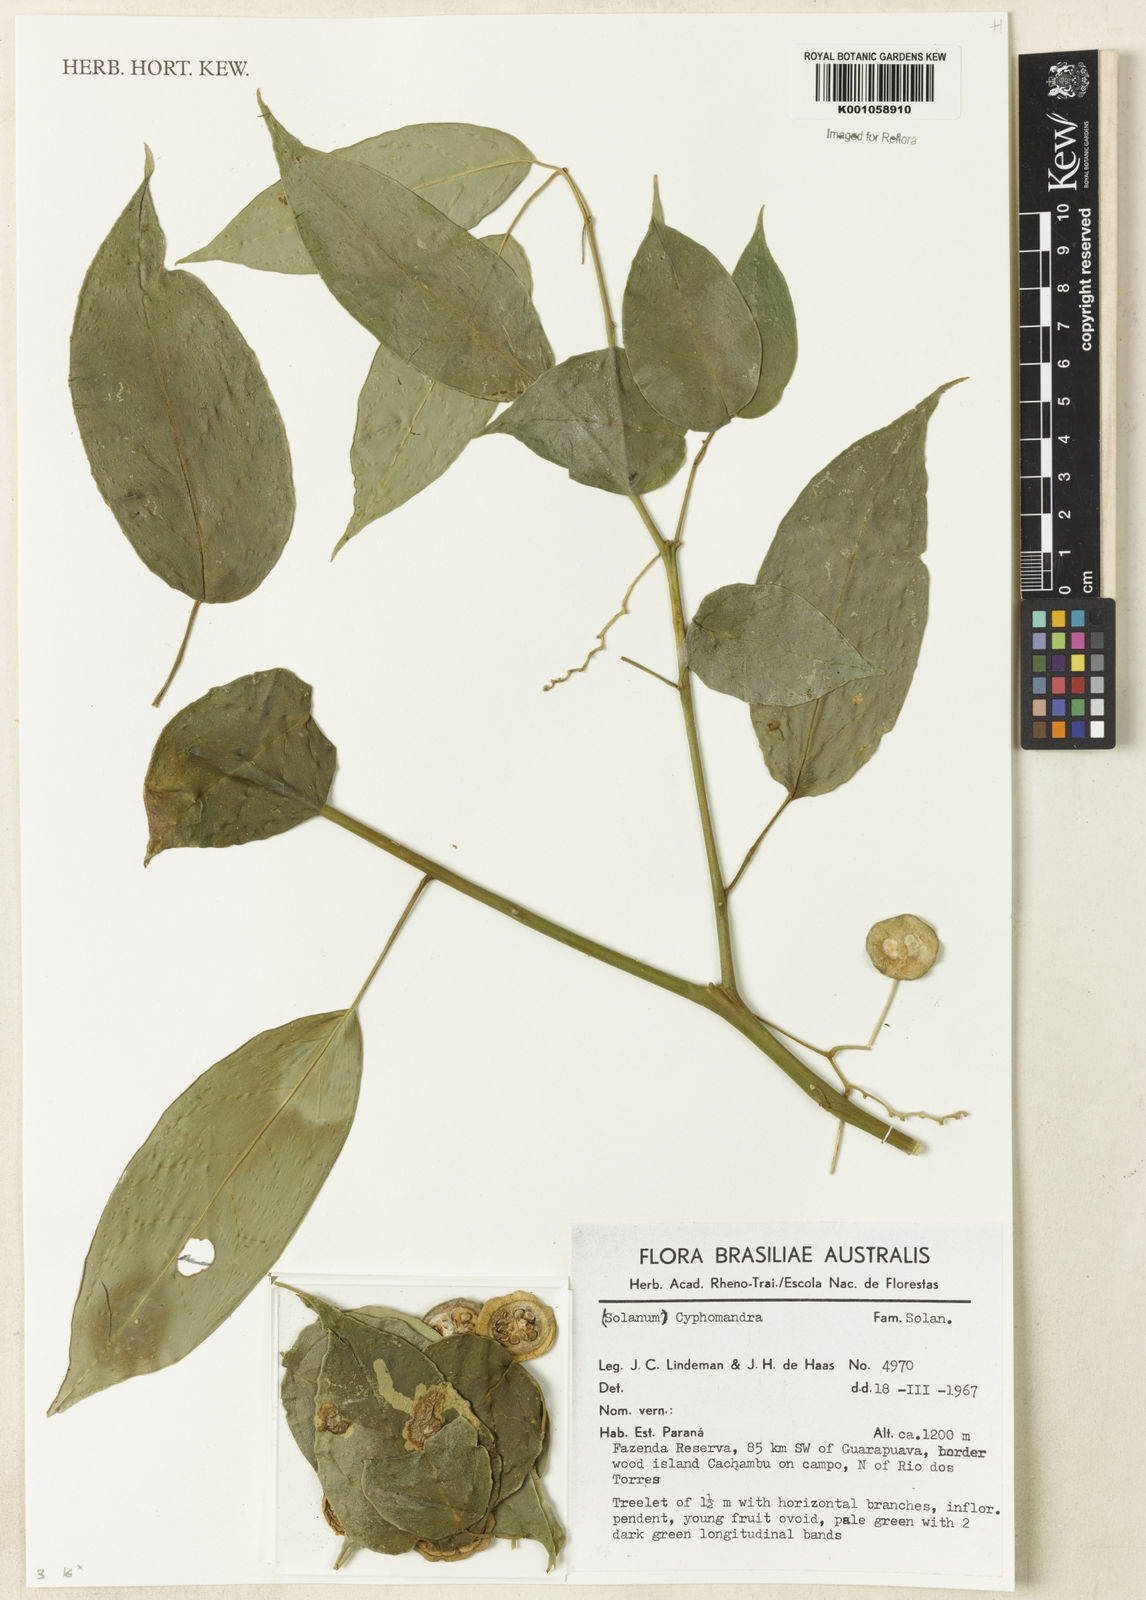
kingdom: Plantae
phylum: Tracheophyta
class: Magnoliopsida
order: Solanales
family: Solanaceae
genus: Solanum
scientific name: Solanum diploconos
